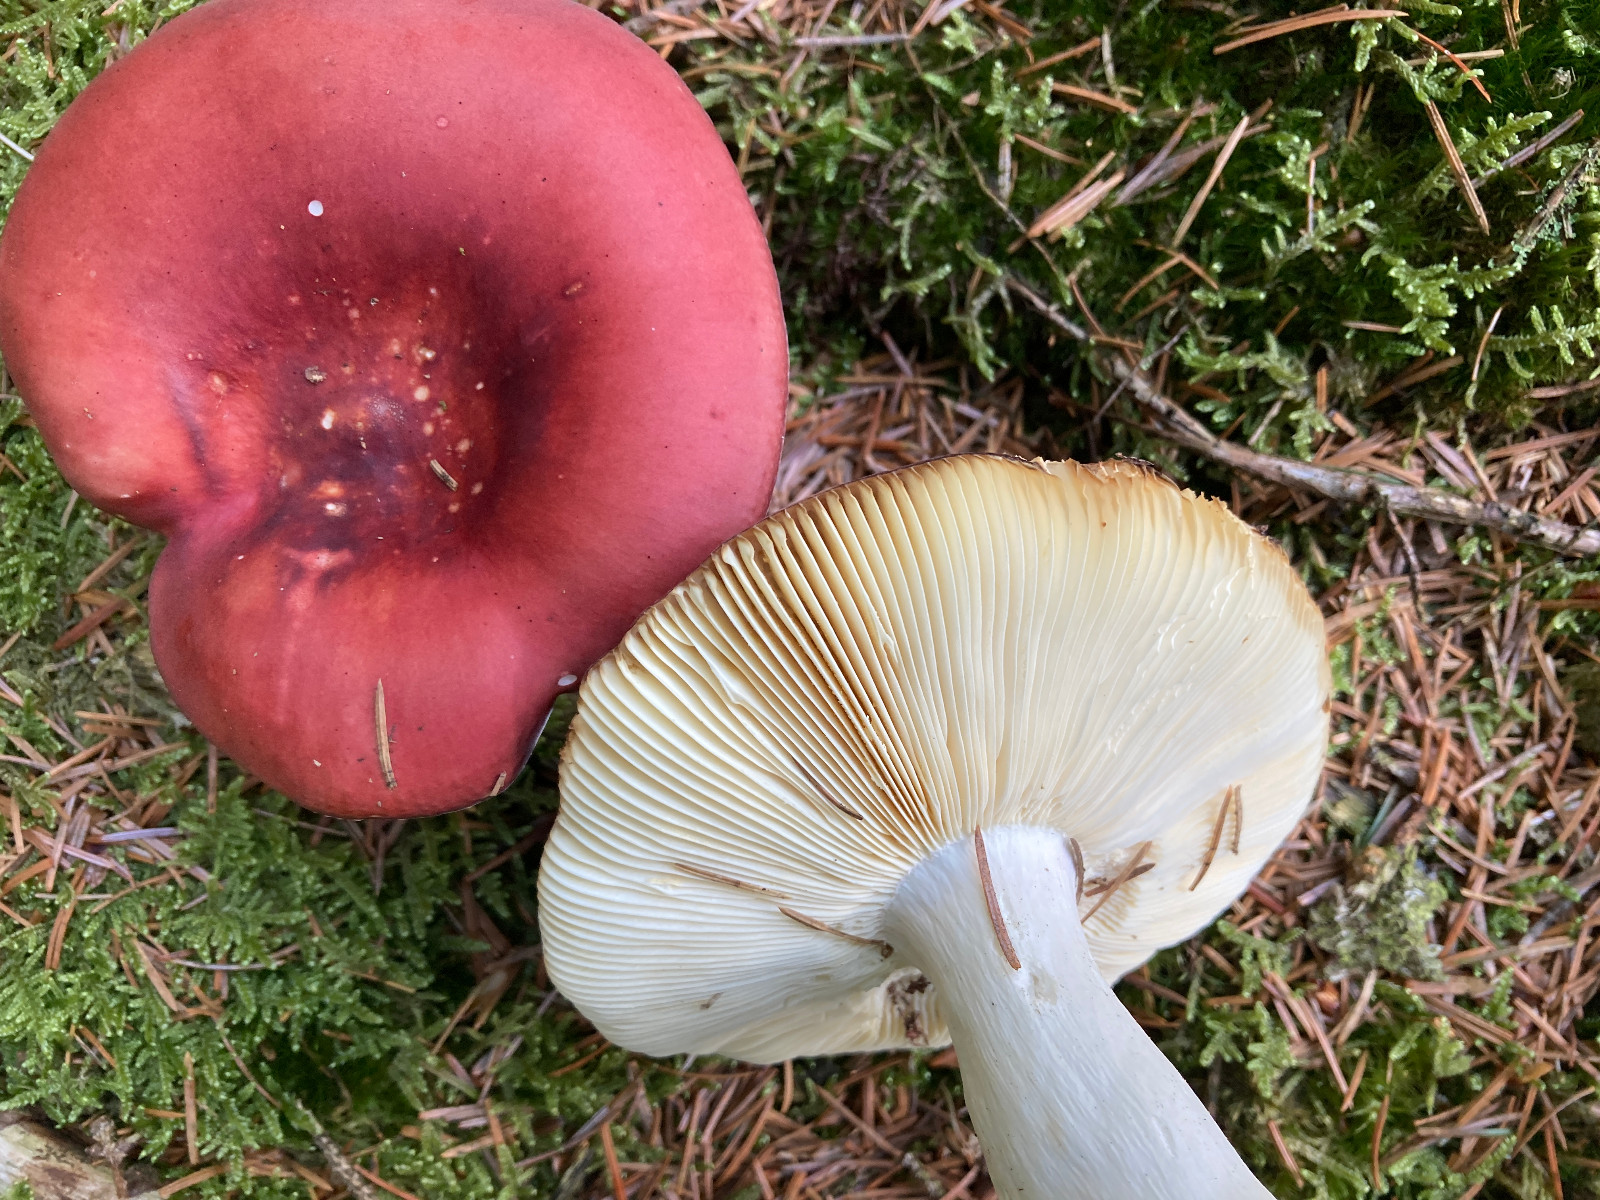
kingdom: Fungi
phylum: Basidiomycota
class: Agaricomycetes
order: Russulales
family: Russulaceae
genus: Russula
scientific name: Russula paludosa
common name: prægtig skørhat
